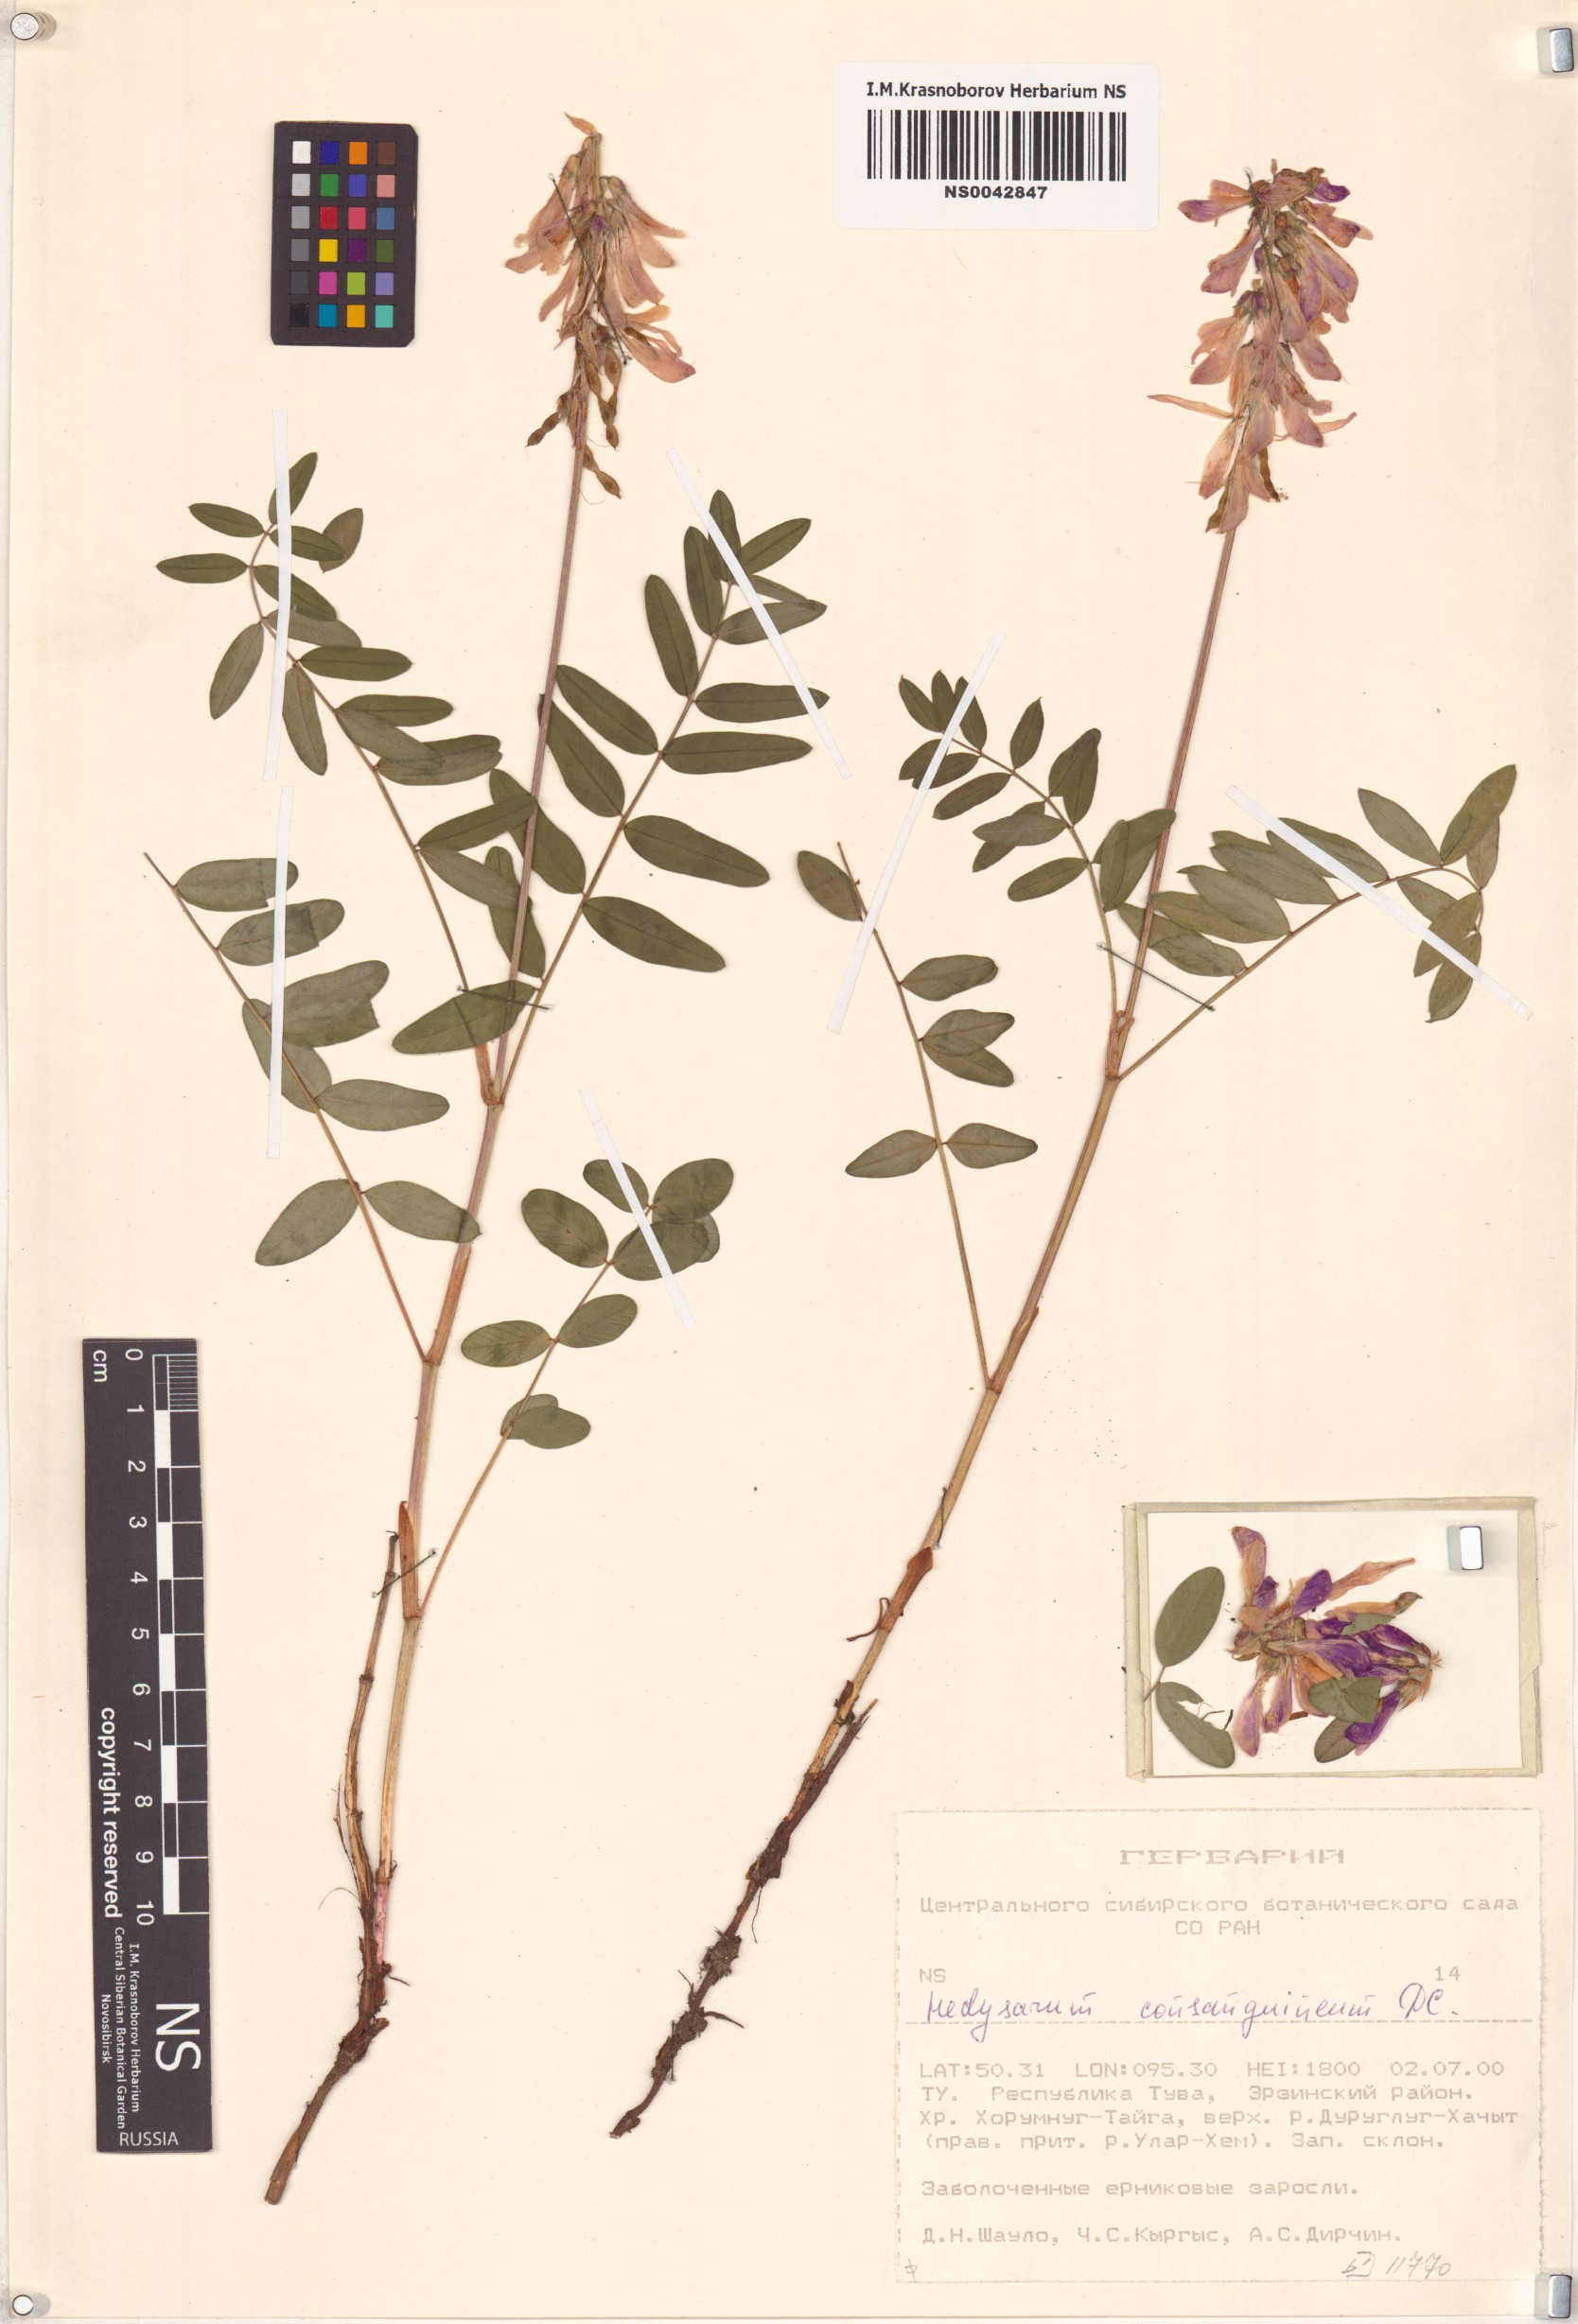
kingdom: Plantae
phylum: Tracheophyta
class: Magnoliopsida
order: Fabales
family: Fabaceae
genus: Hedysarum
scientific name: Hedysarum consanguineum
